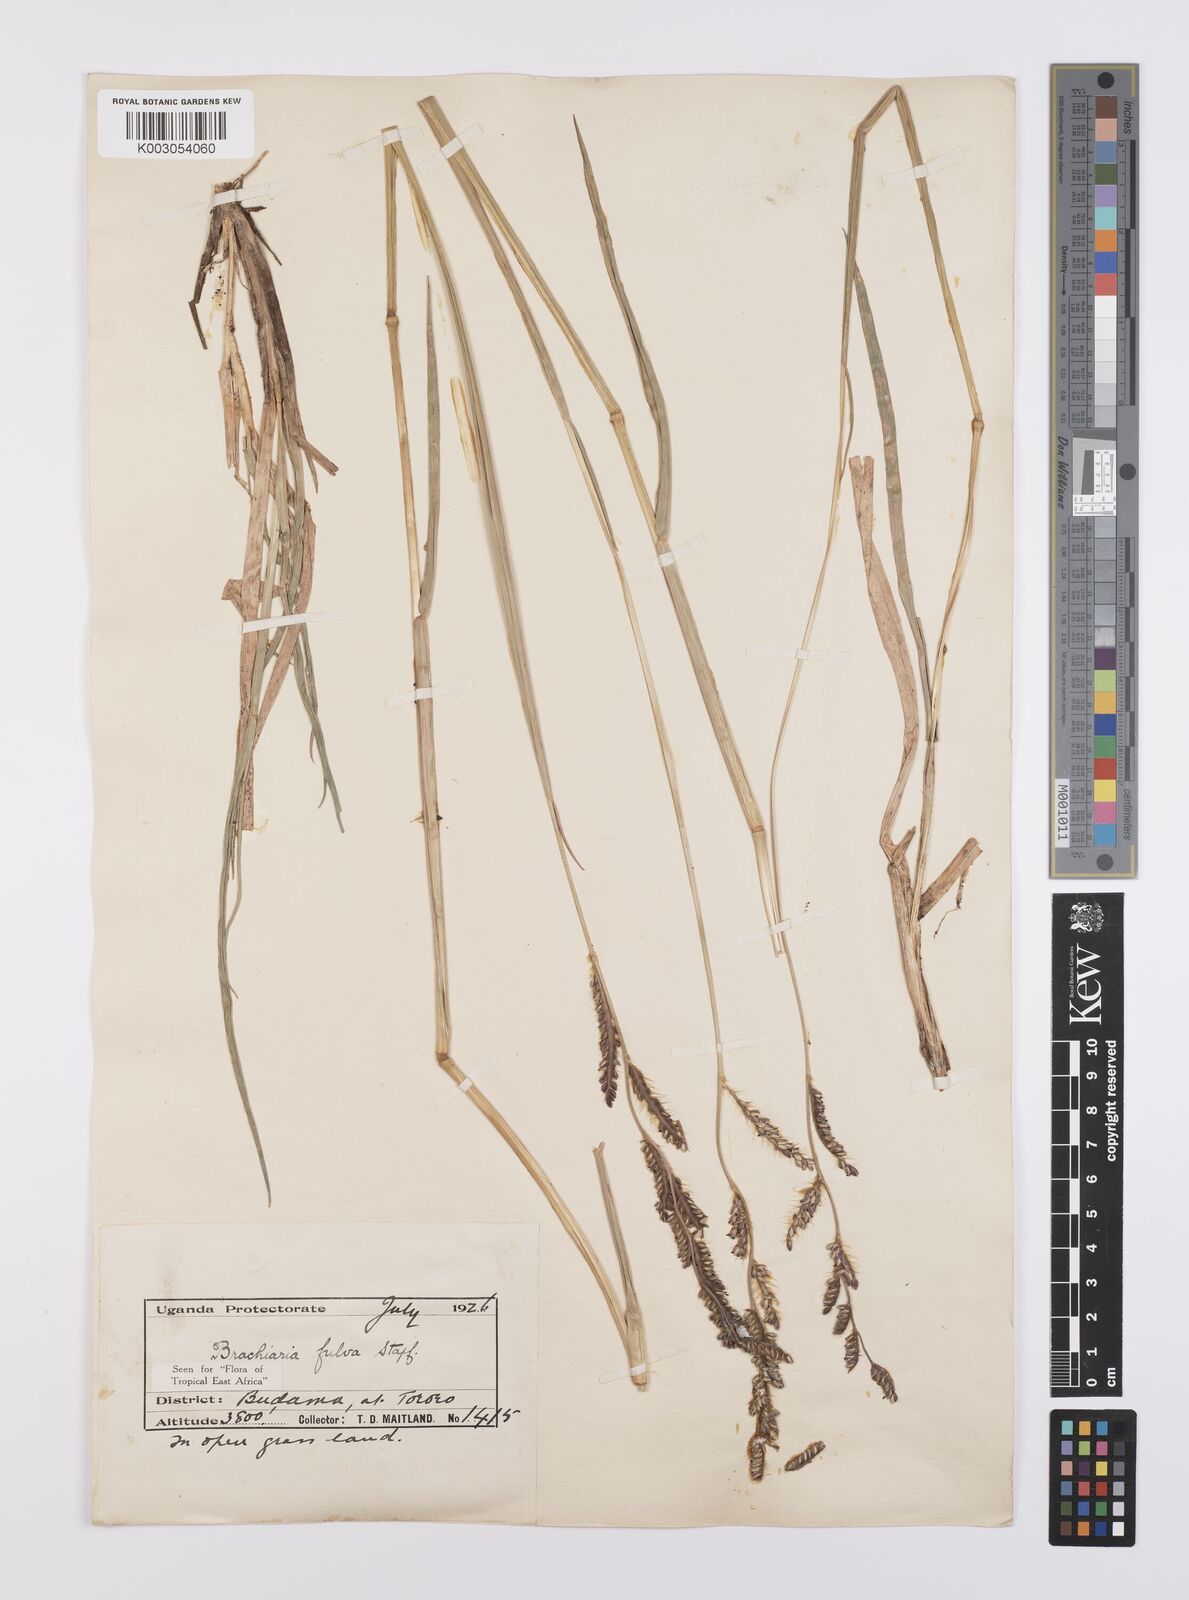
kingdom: Plantae
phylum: Tracheophyta
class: Liliopsida
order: Poales
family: Poaceae
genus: Urochloa
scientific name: Urochloa jubata
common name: Buffalograss
